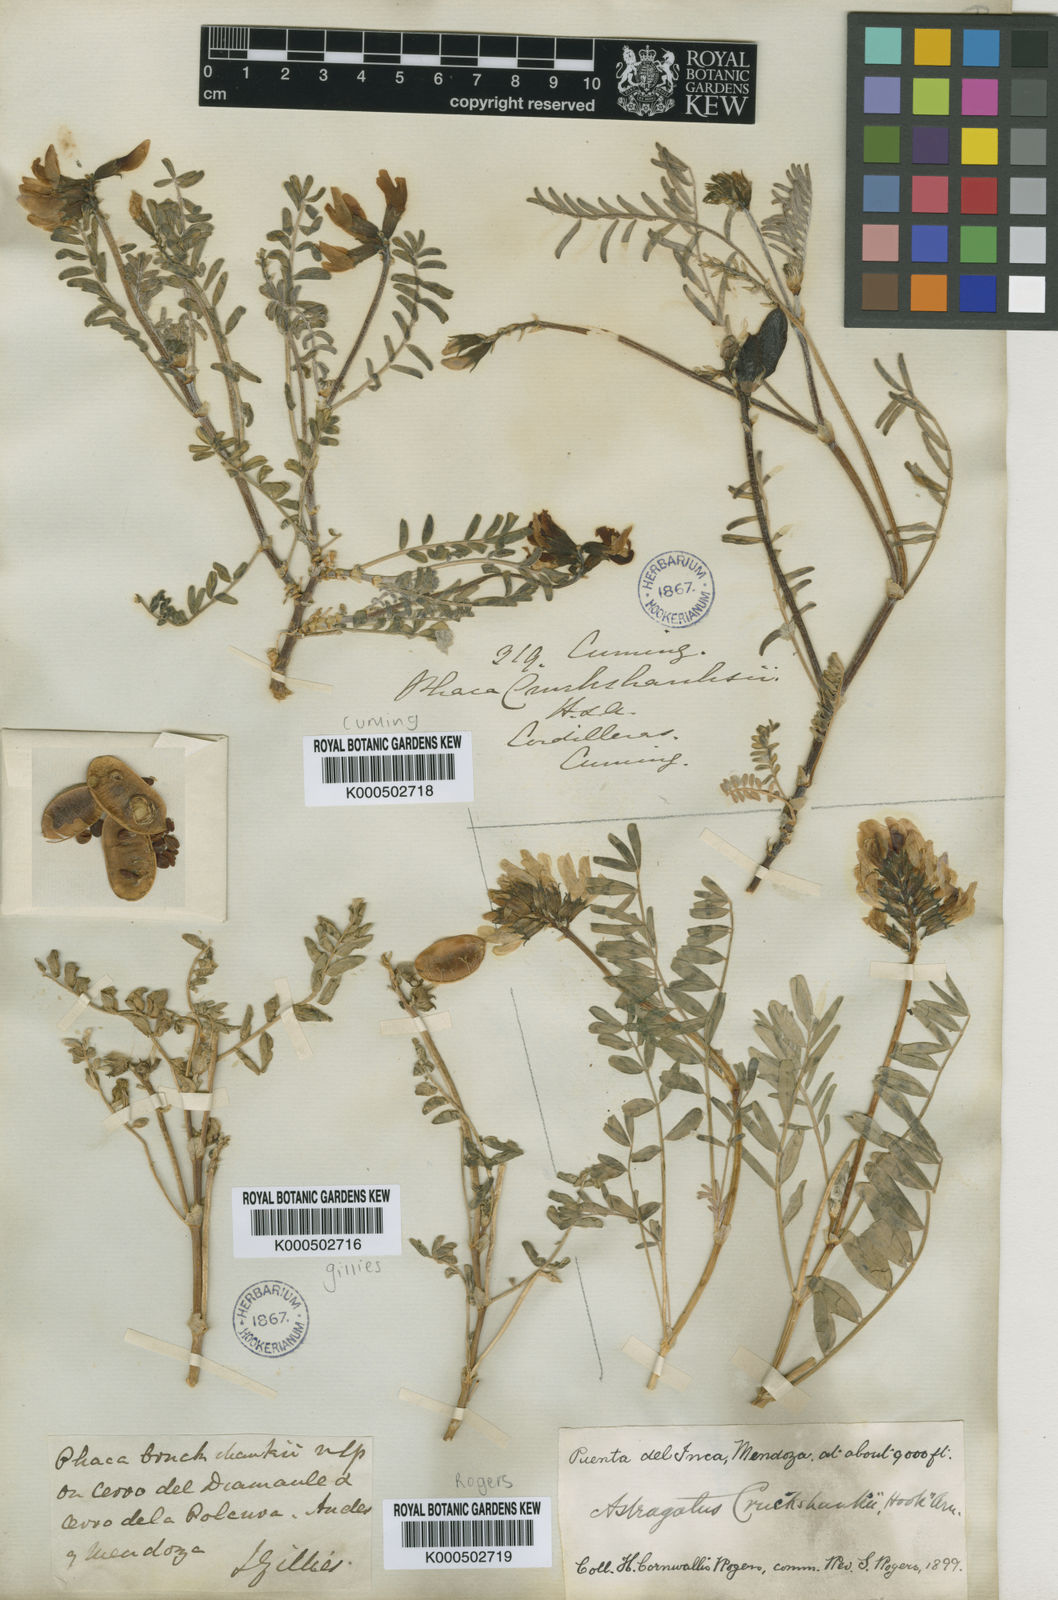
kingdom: Plantae
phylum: Tracheophyta
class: Magnoliopsida
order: Fabales
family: Fabaceae
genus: Astragalus
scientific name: Astragalus cruckshanksii
